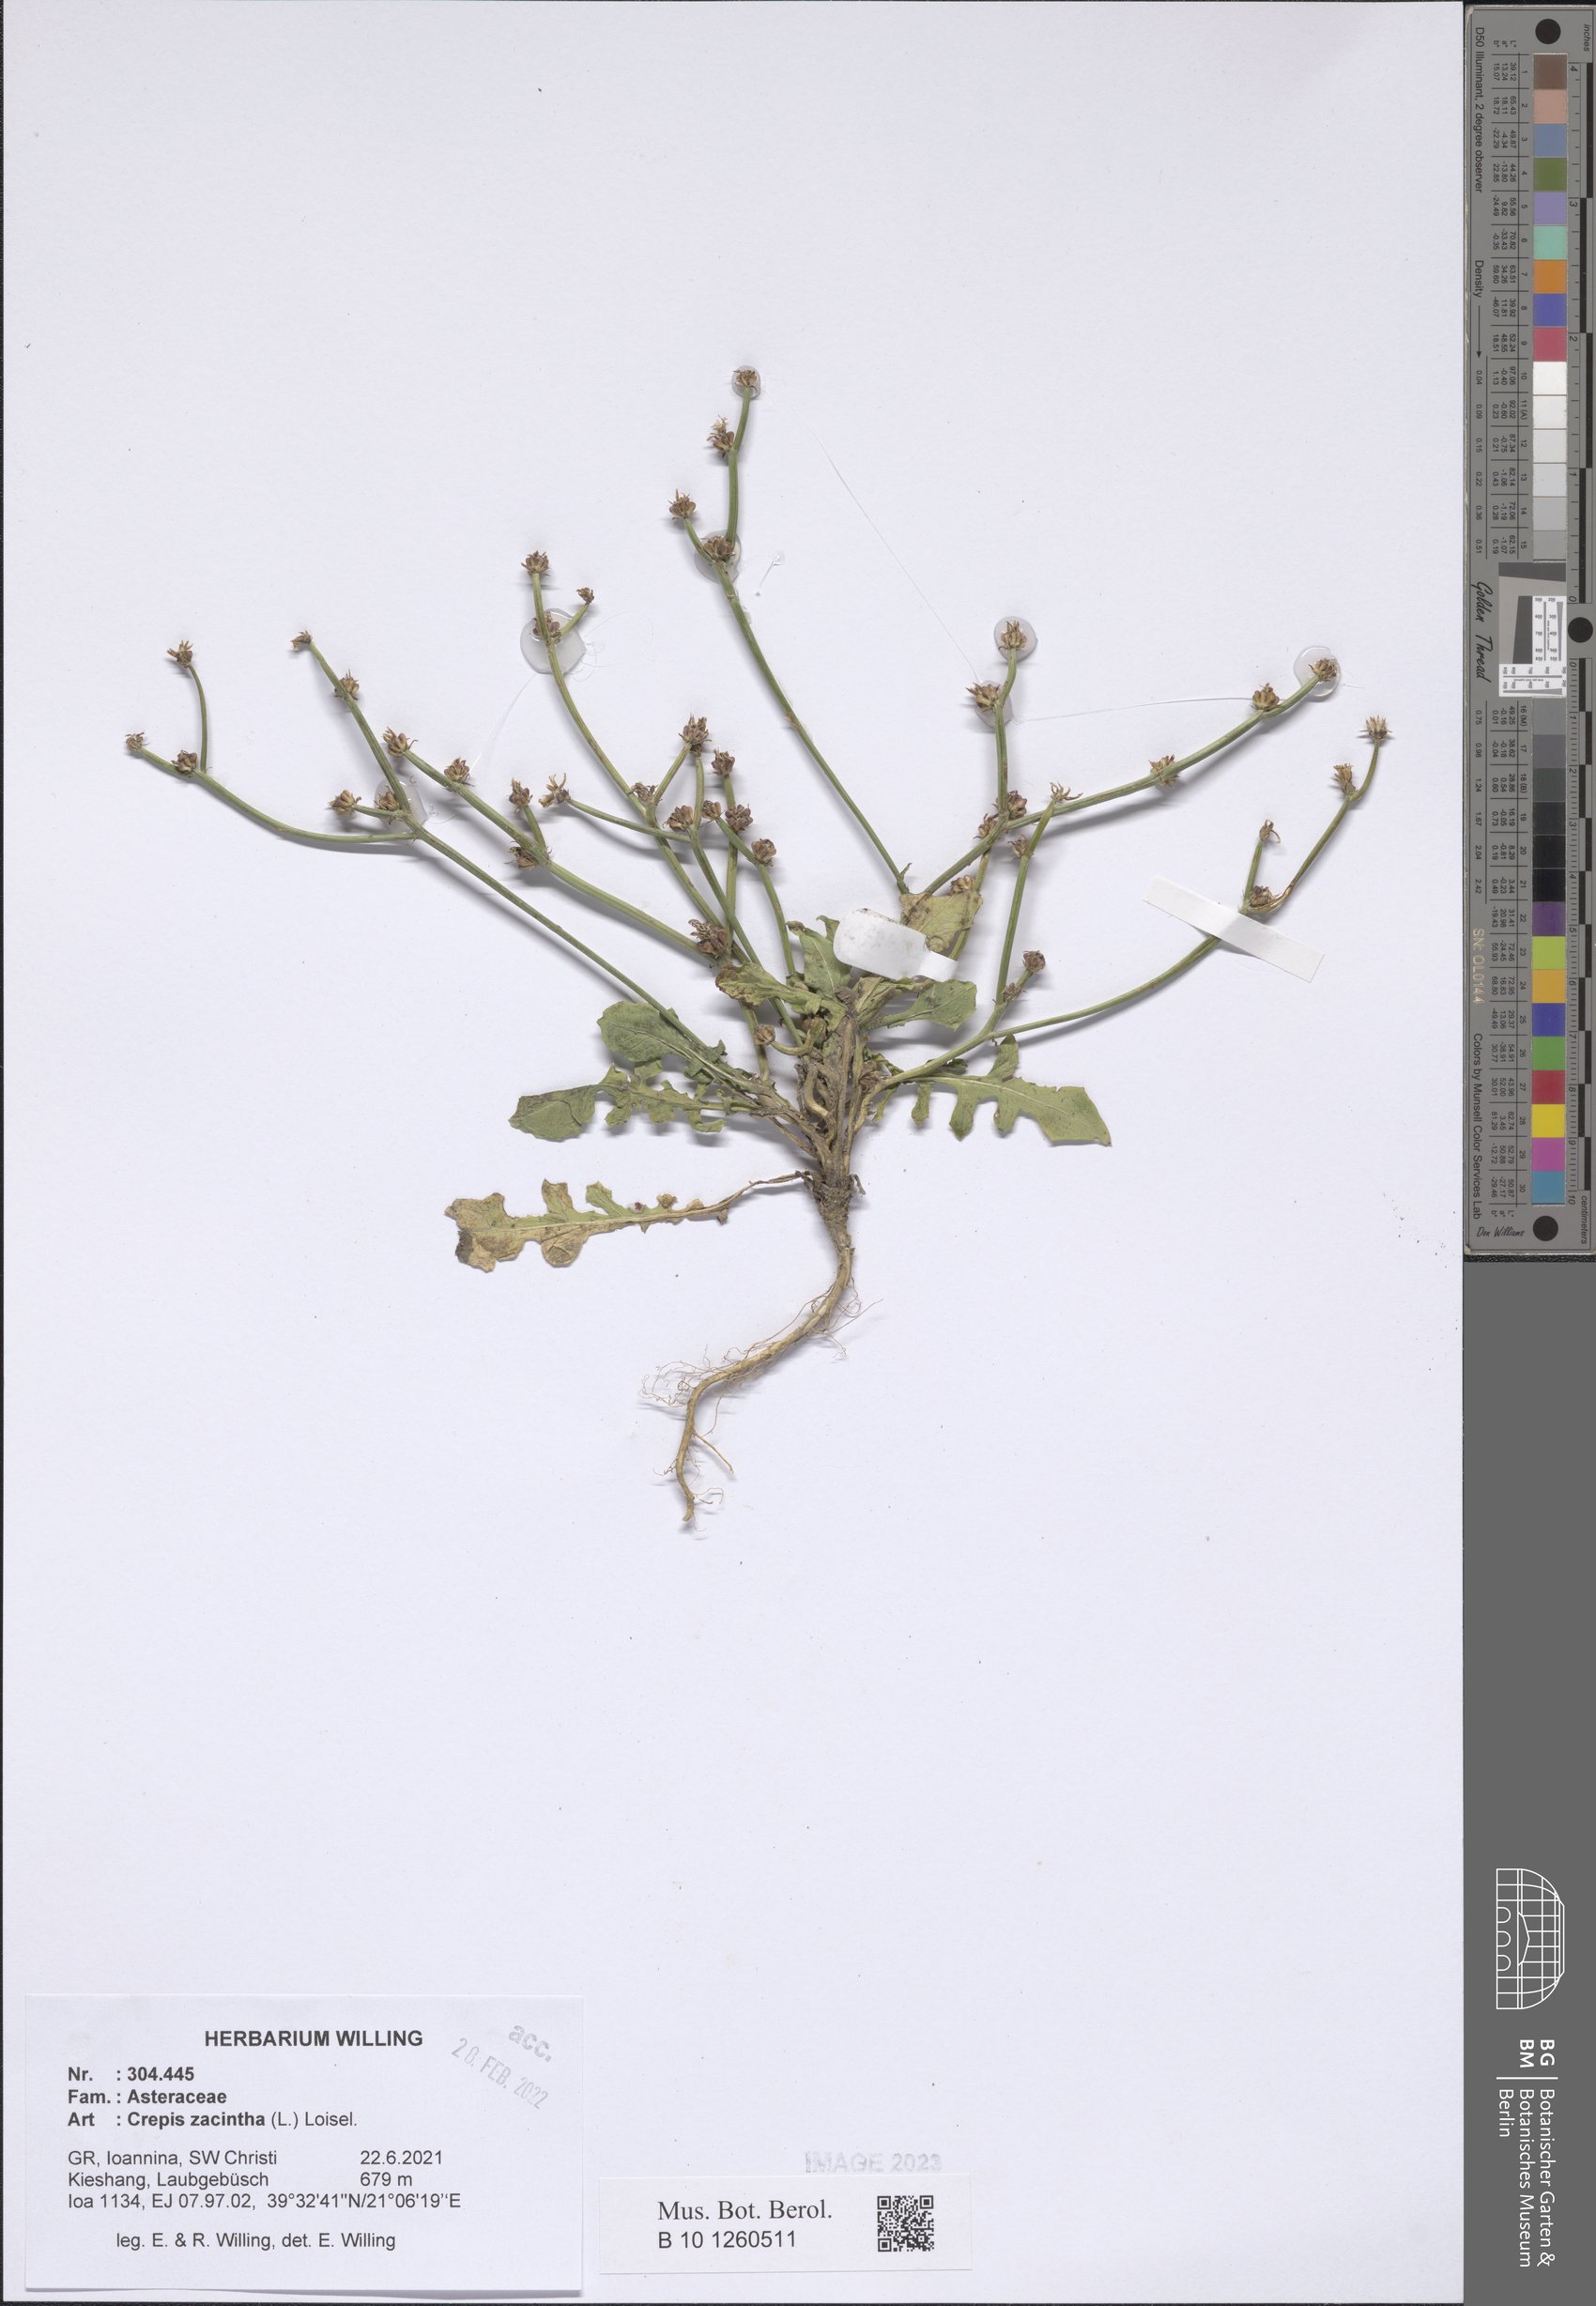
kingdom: Plantae
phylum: Tracheophyta
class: Magnoliopsida
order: Asterales
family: Asteraceae
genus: Crepis
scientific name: Crepis zacintha
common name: Striped hawksbeard
